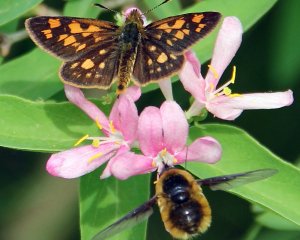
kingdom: Animalia
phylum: Arthropoda
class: Insecta
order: Lepidoptera
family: Hesperiidae
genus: Carterocephalus
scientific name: Carterocephalus palaemon
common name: Chequered Skipper
